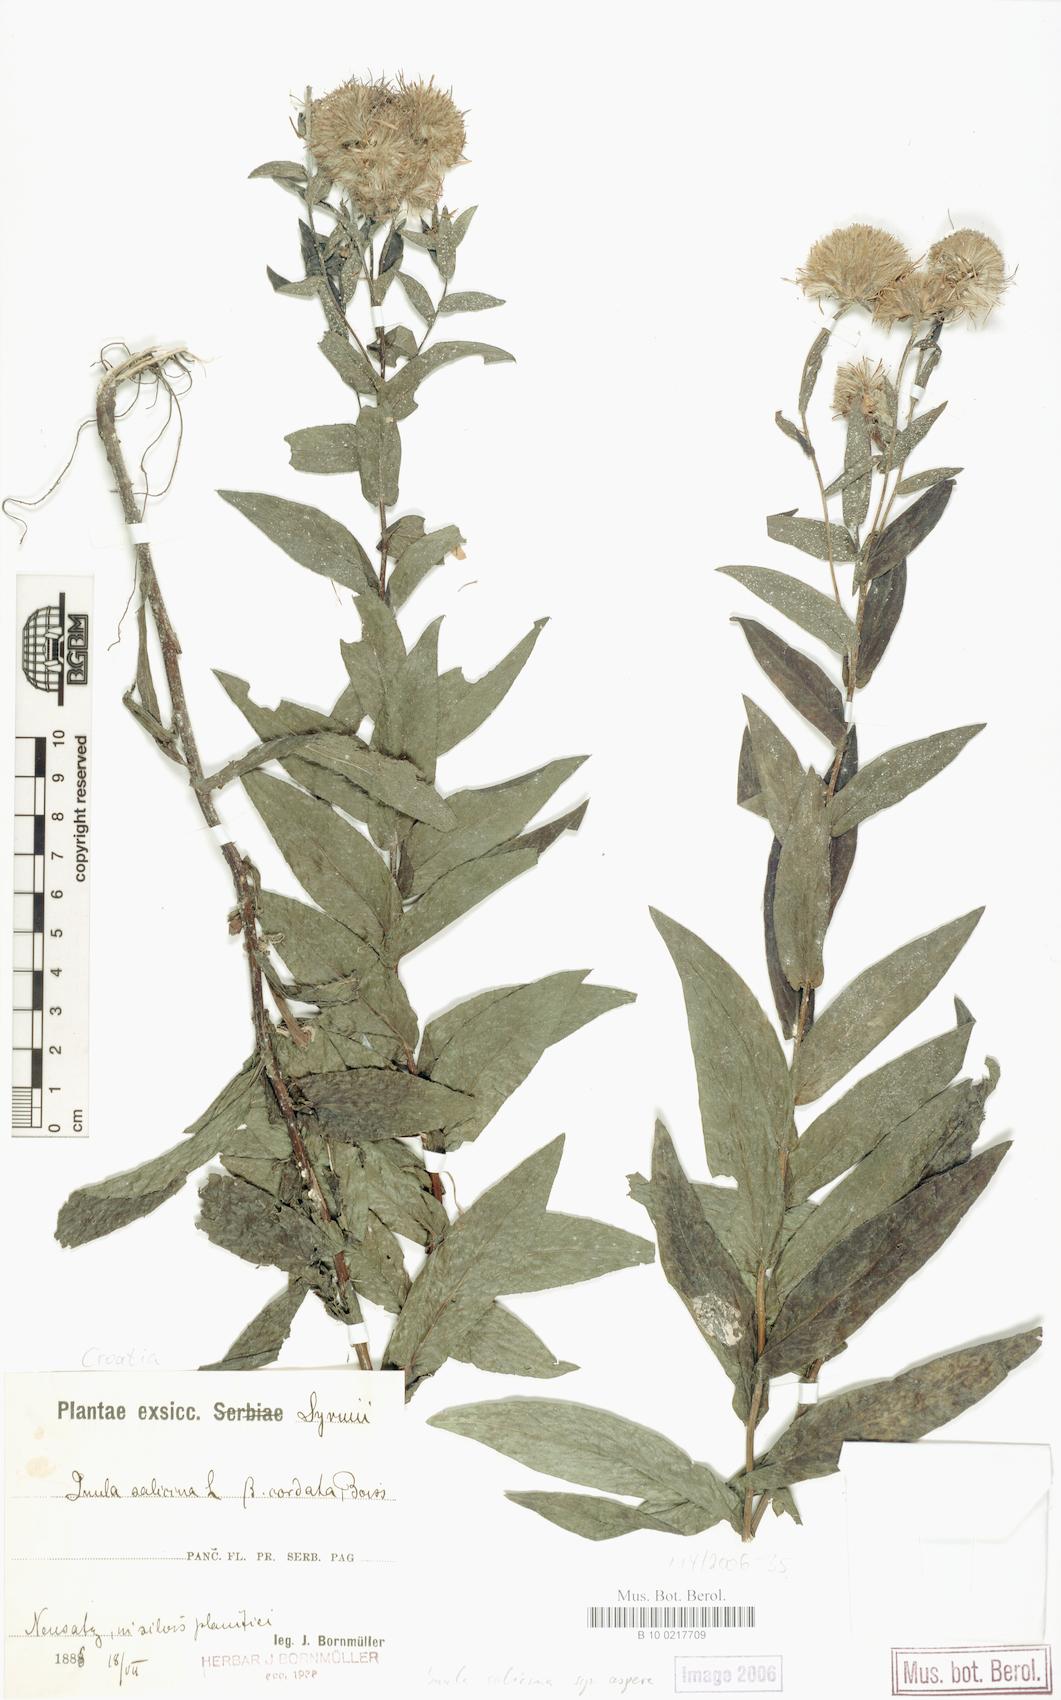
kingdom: Plantae
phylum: Tracheophyta
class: Magnoliopsida
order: Asterales
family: Asteraceae
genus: Pentanema
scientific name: Pentanema salicinum
